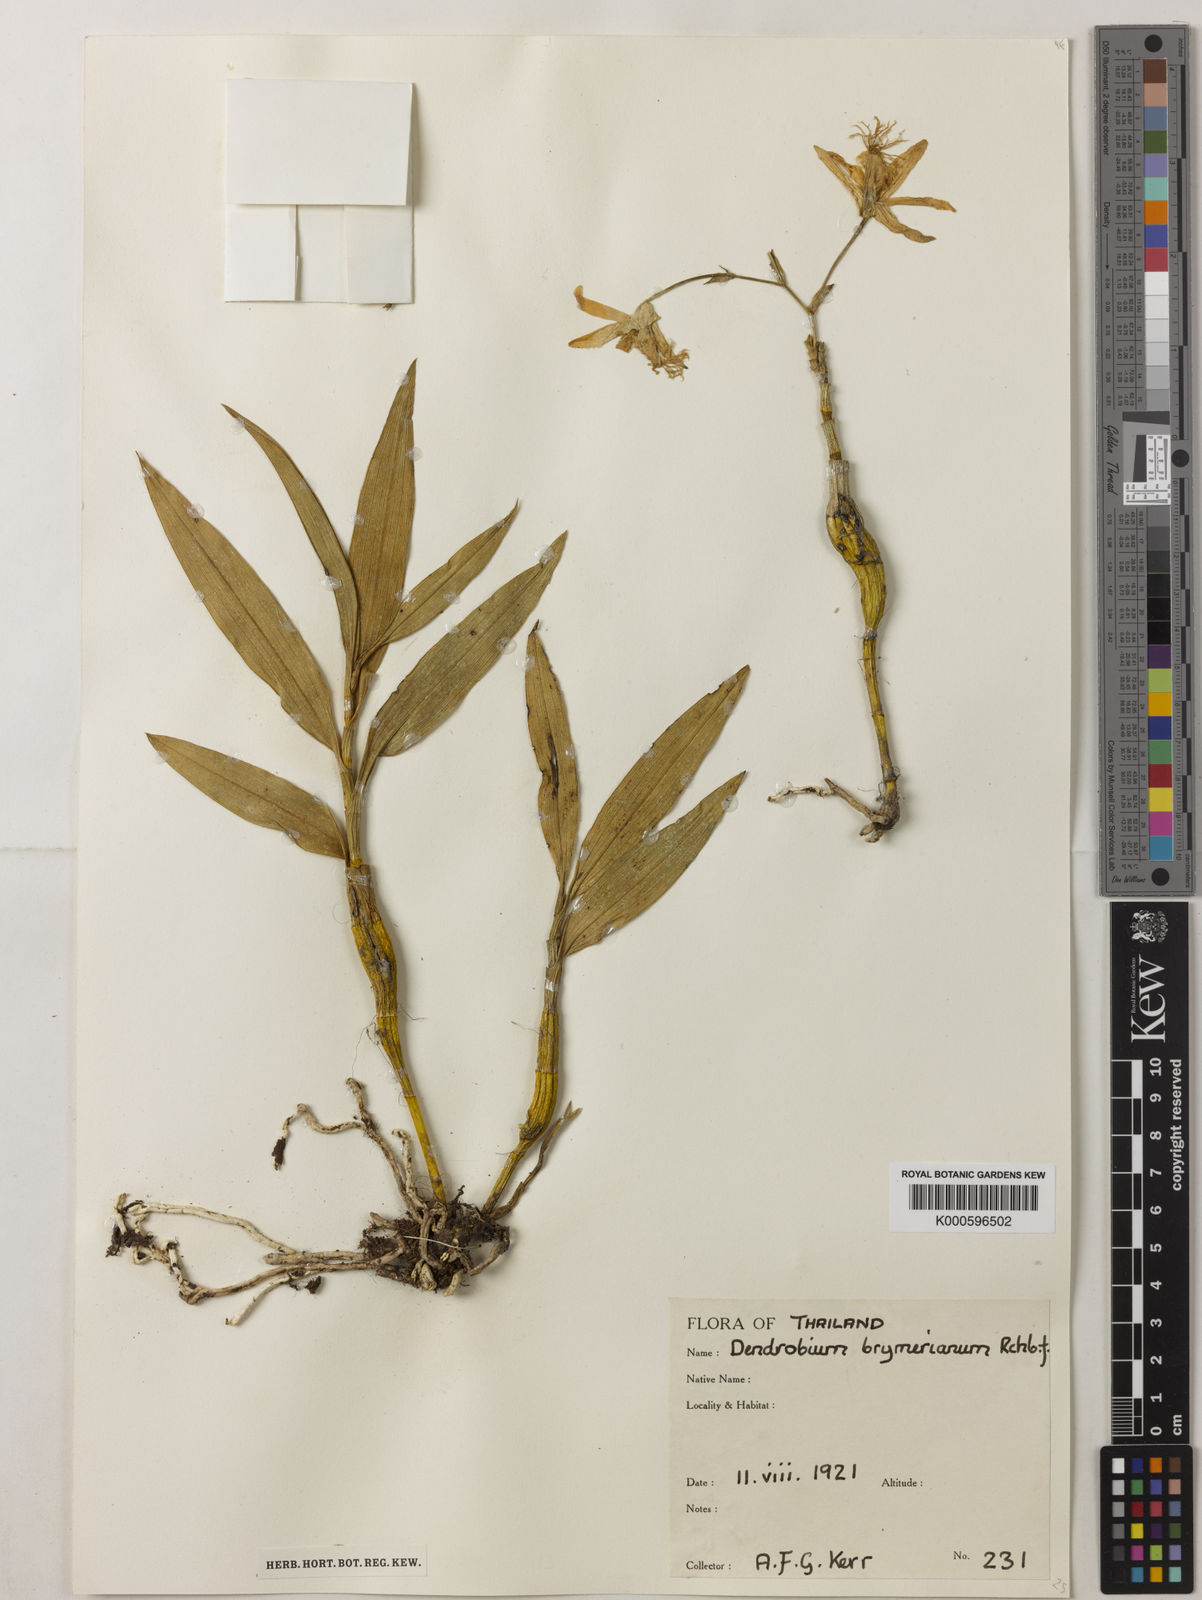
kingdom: Plantae
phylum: Tracheophyta
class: Liliopsida
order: Asparagales
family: Orchidaceae
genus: Dendrobium
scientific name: Dendrobium brymerianum
